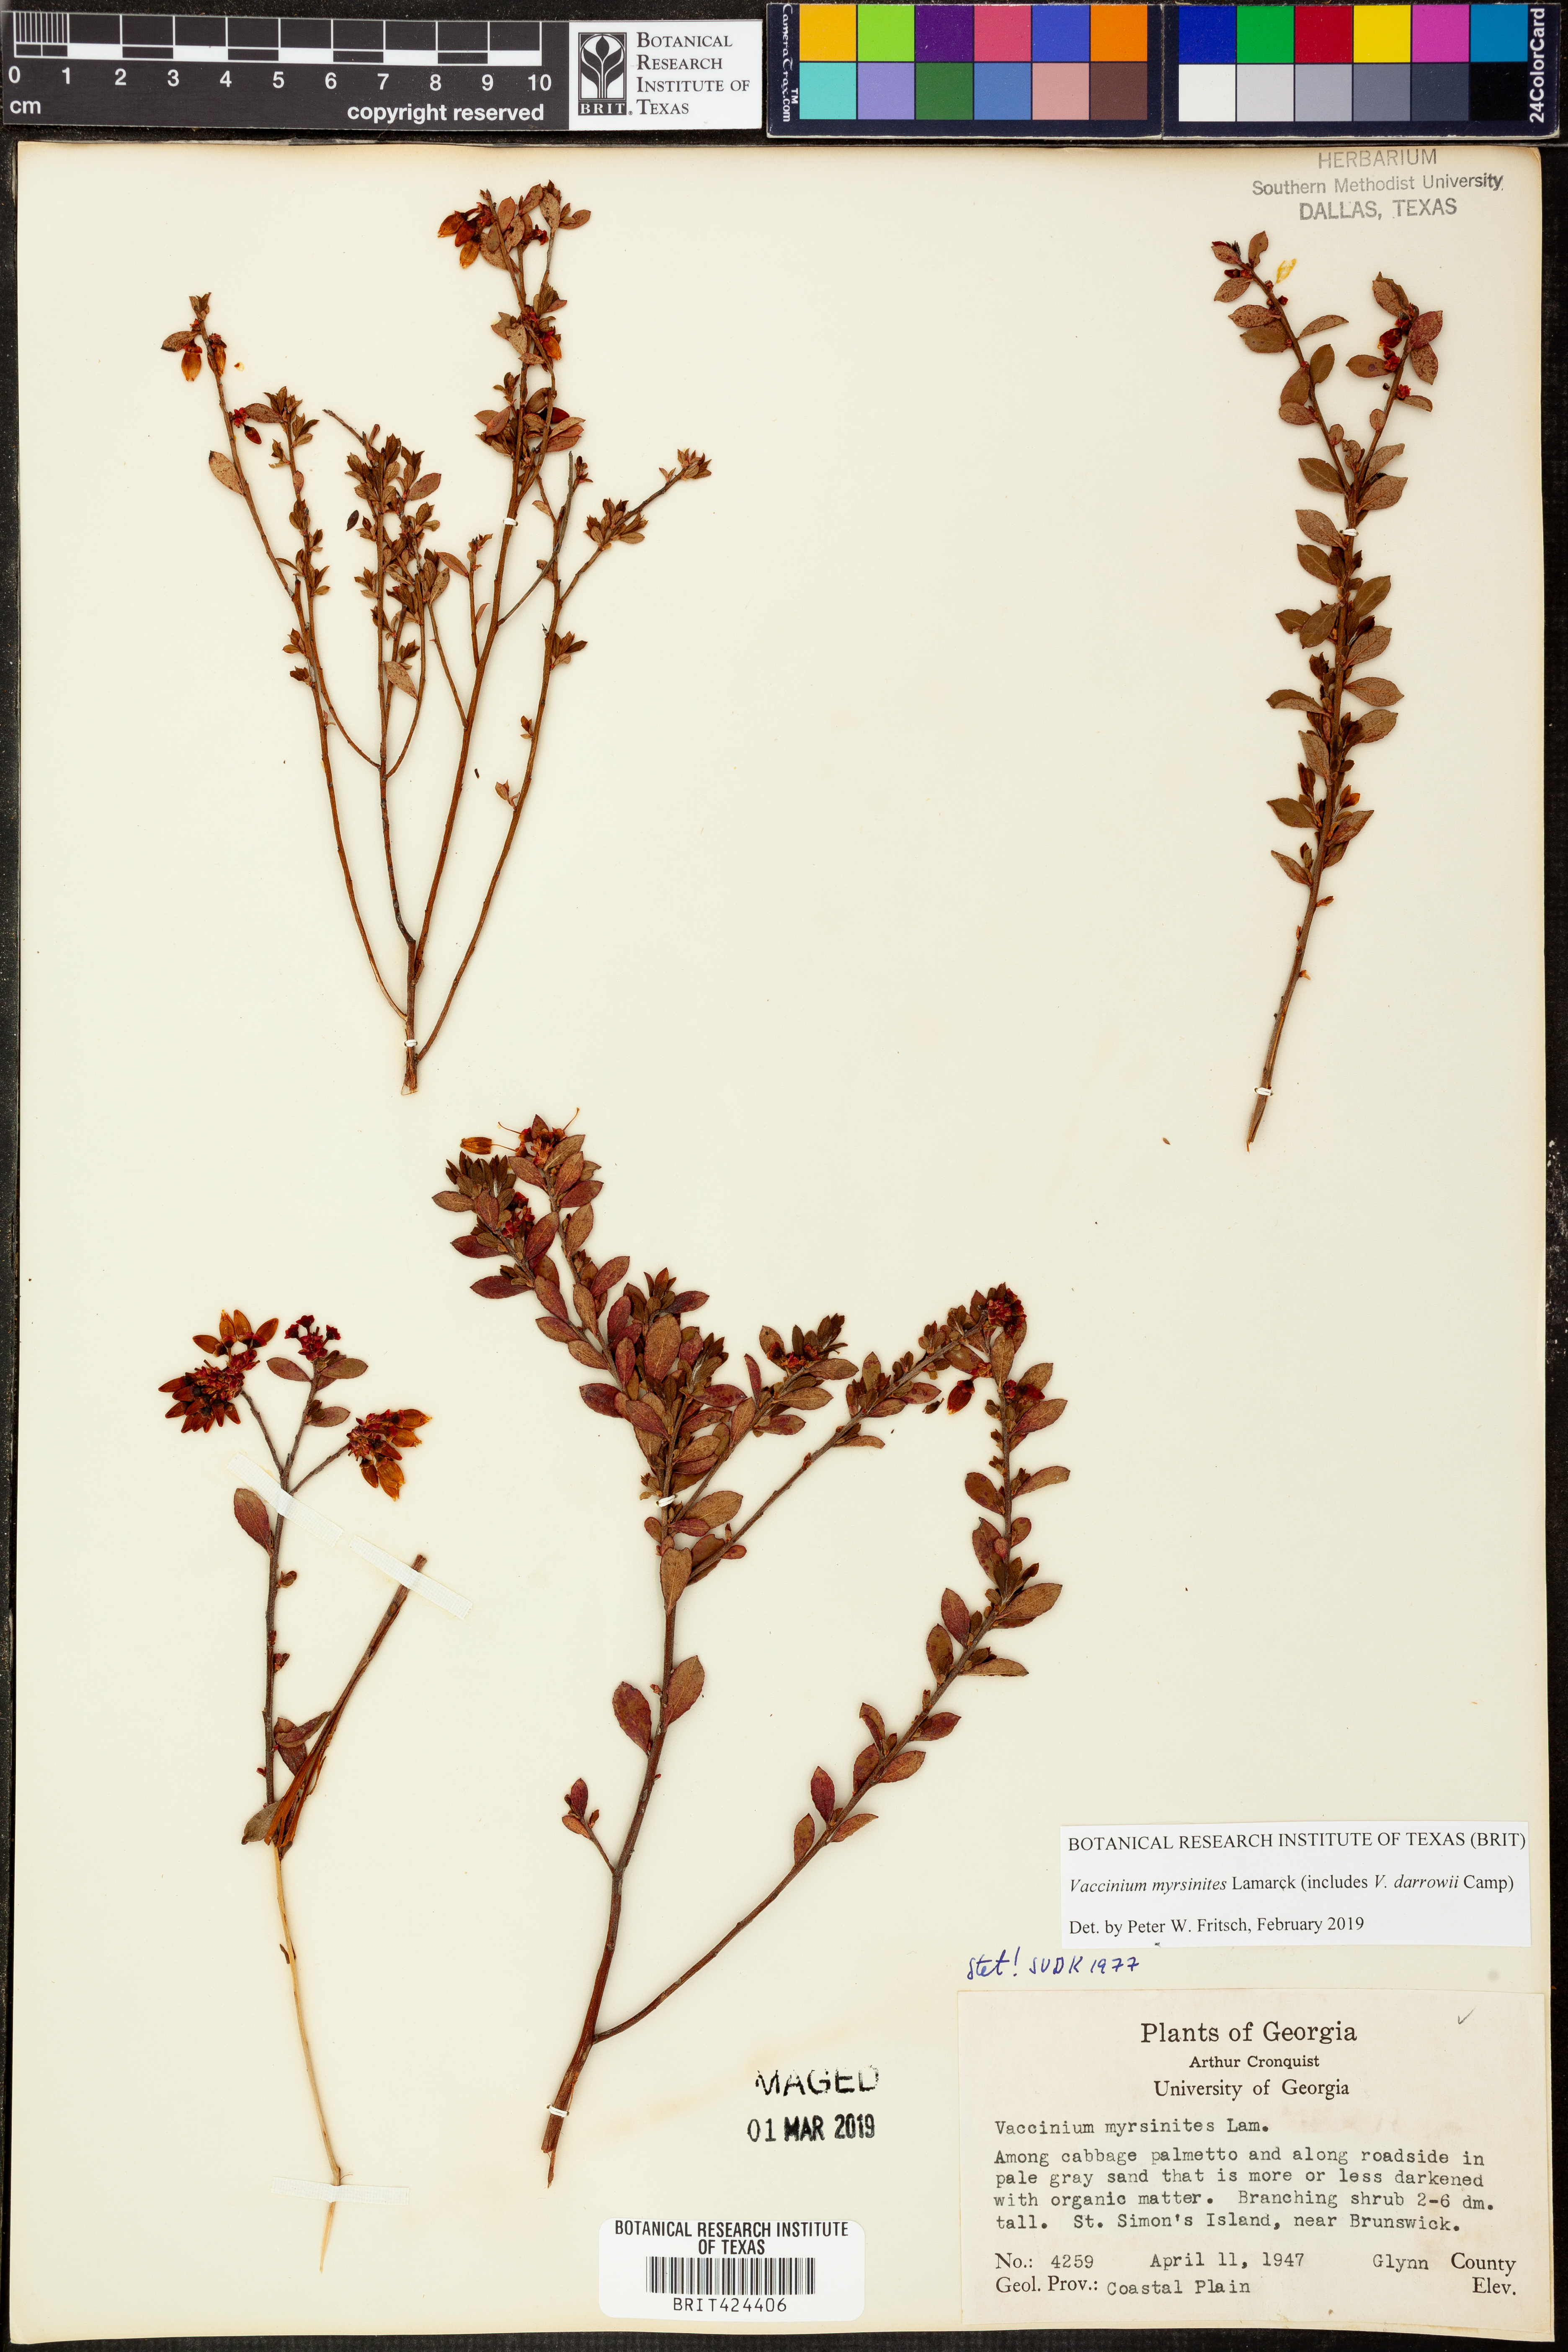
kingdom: Plantae
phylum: Tracheophyta
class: Magnoliopsida
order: Ericales
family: Ericaceae
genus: Vaccinium
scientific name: Vaccinium myrsinites
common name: Evergreen blueberry
